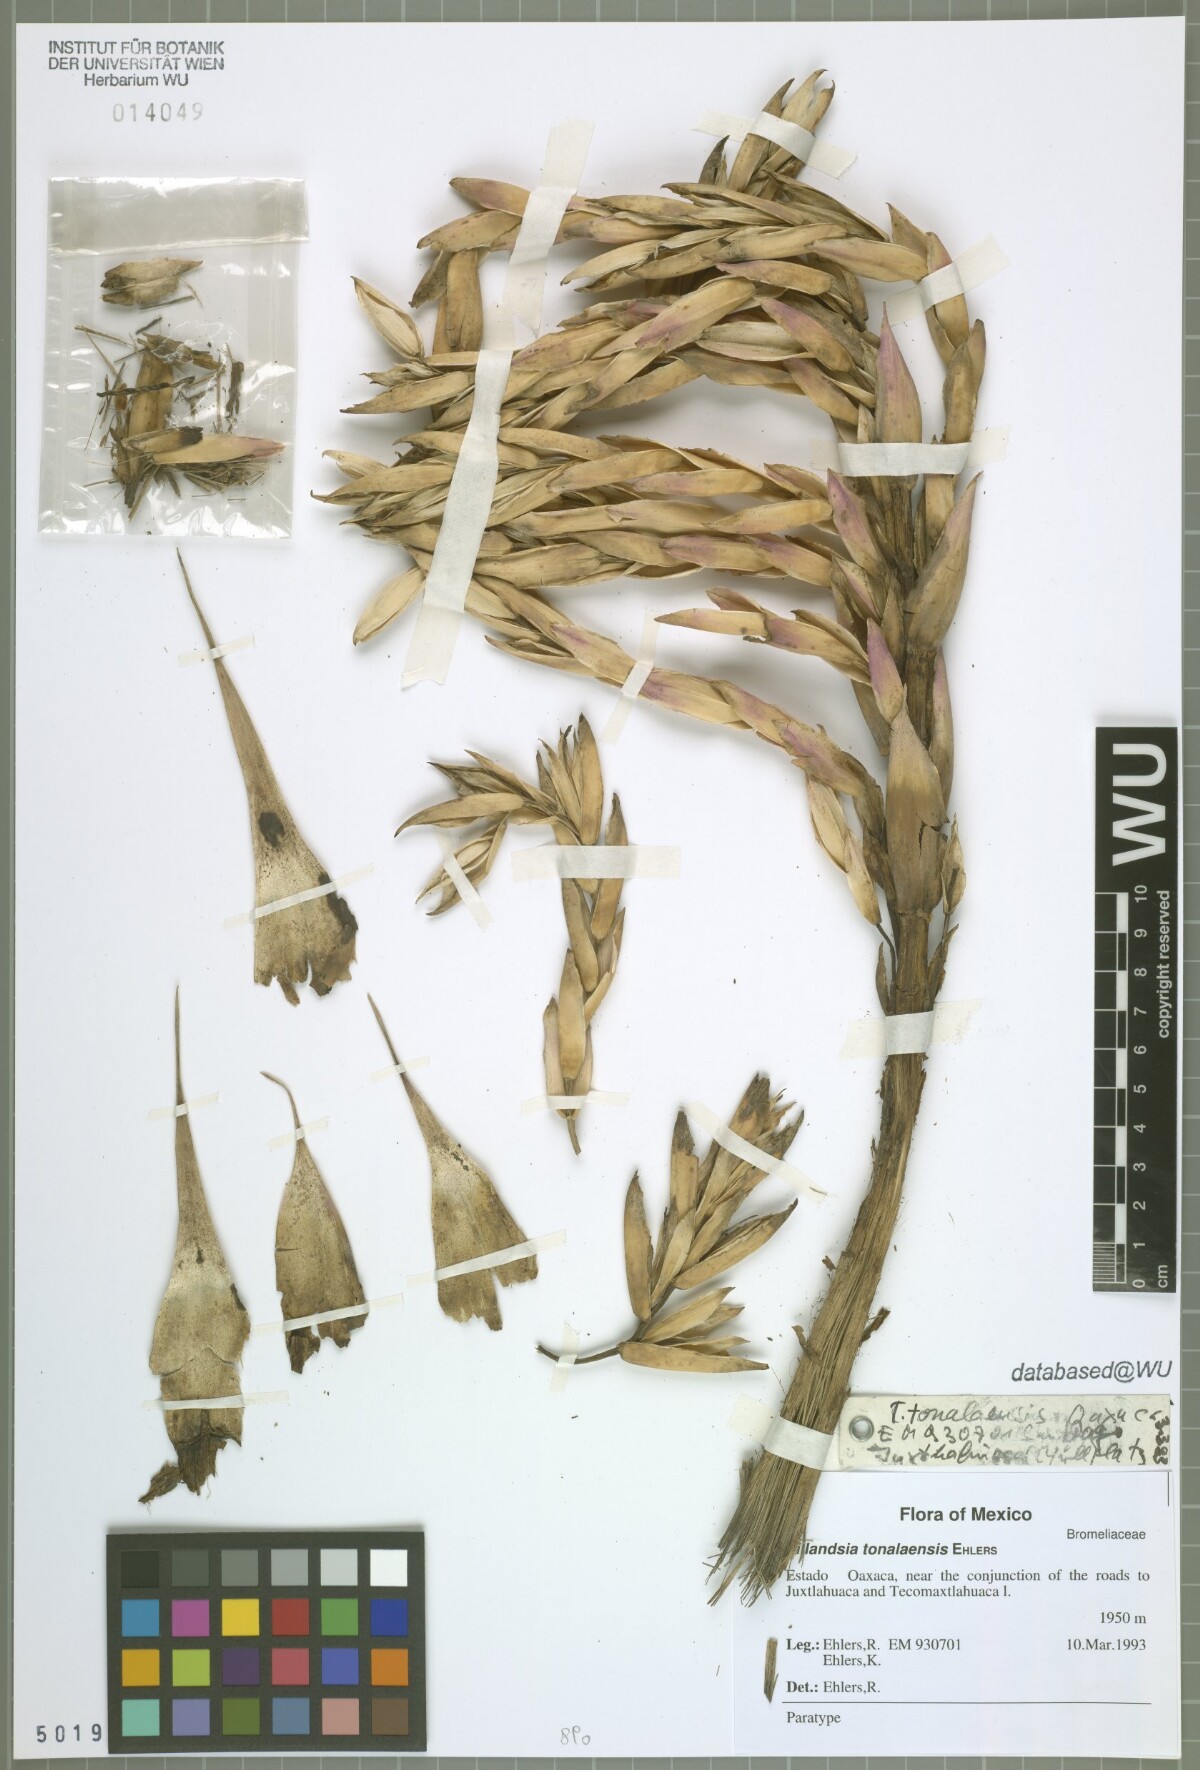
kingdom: Plantae
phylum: Tracheophyta
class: Liliopsida
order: Poales
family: Bromeliaceae
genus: Tillandsia
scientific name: Tillandsia tonalaensis
